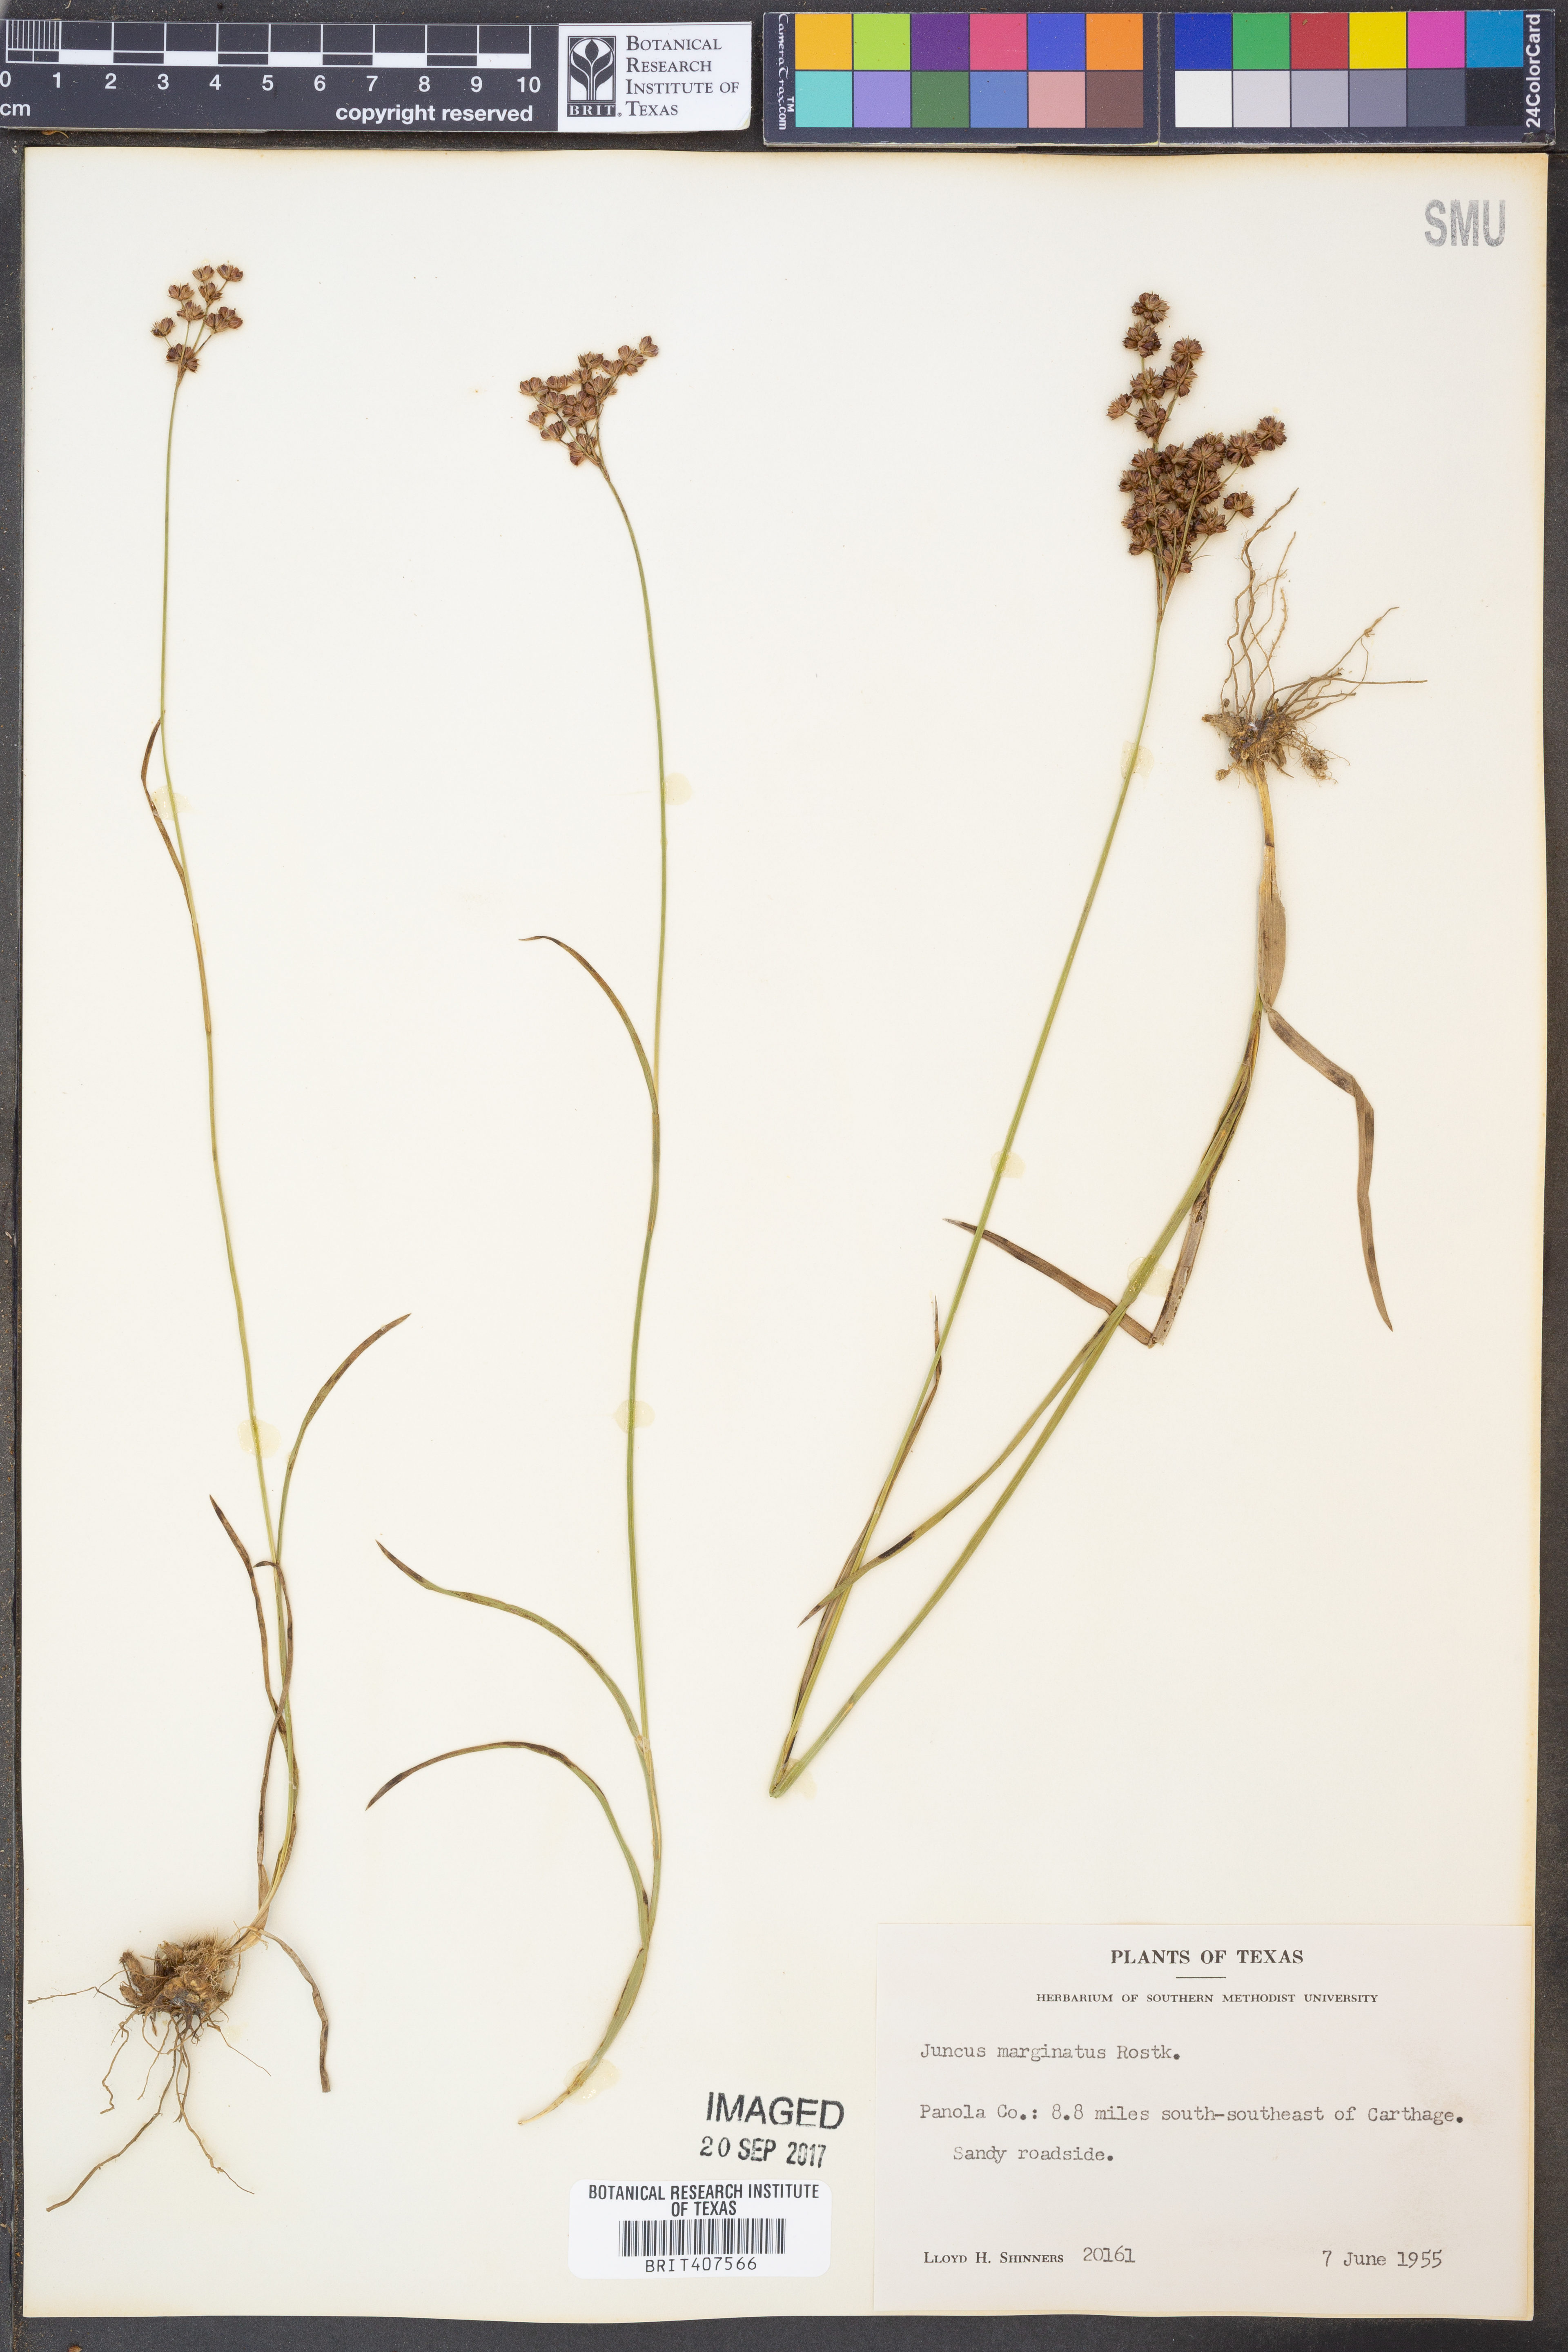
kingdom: Plantae
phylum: Tracheophyta
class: Liliopsida
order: Poales
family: Juncaceae
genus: Juncus
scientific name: Juncus marginatus
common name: Grass-leaf rush
